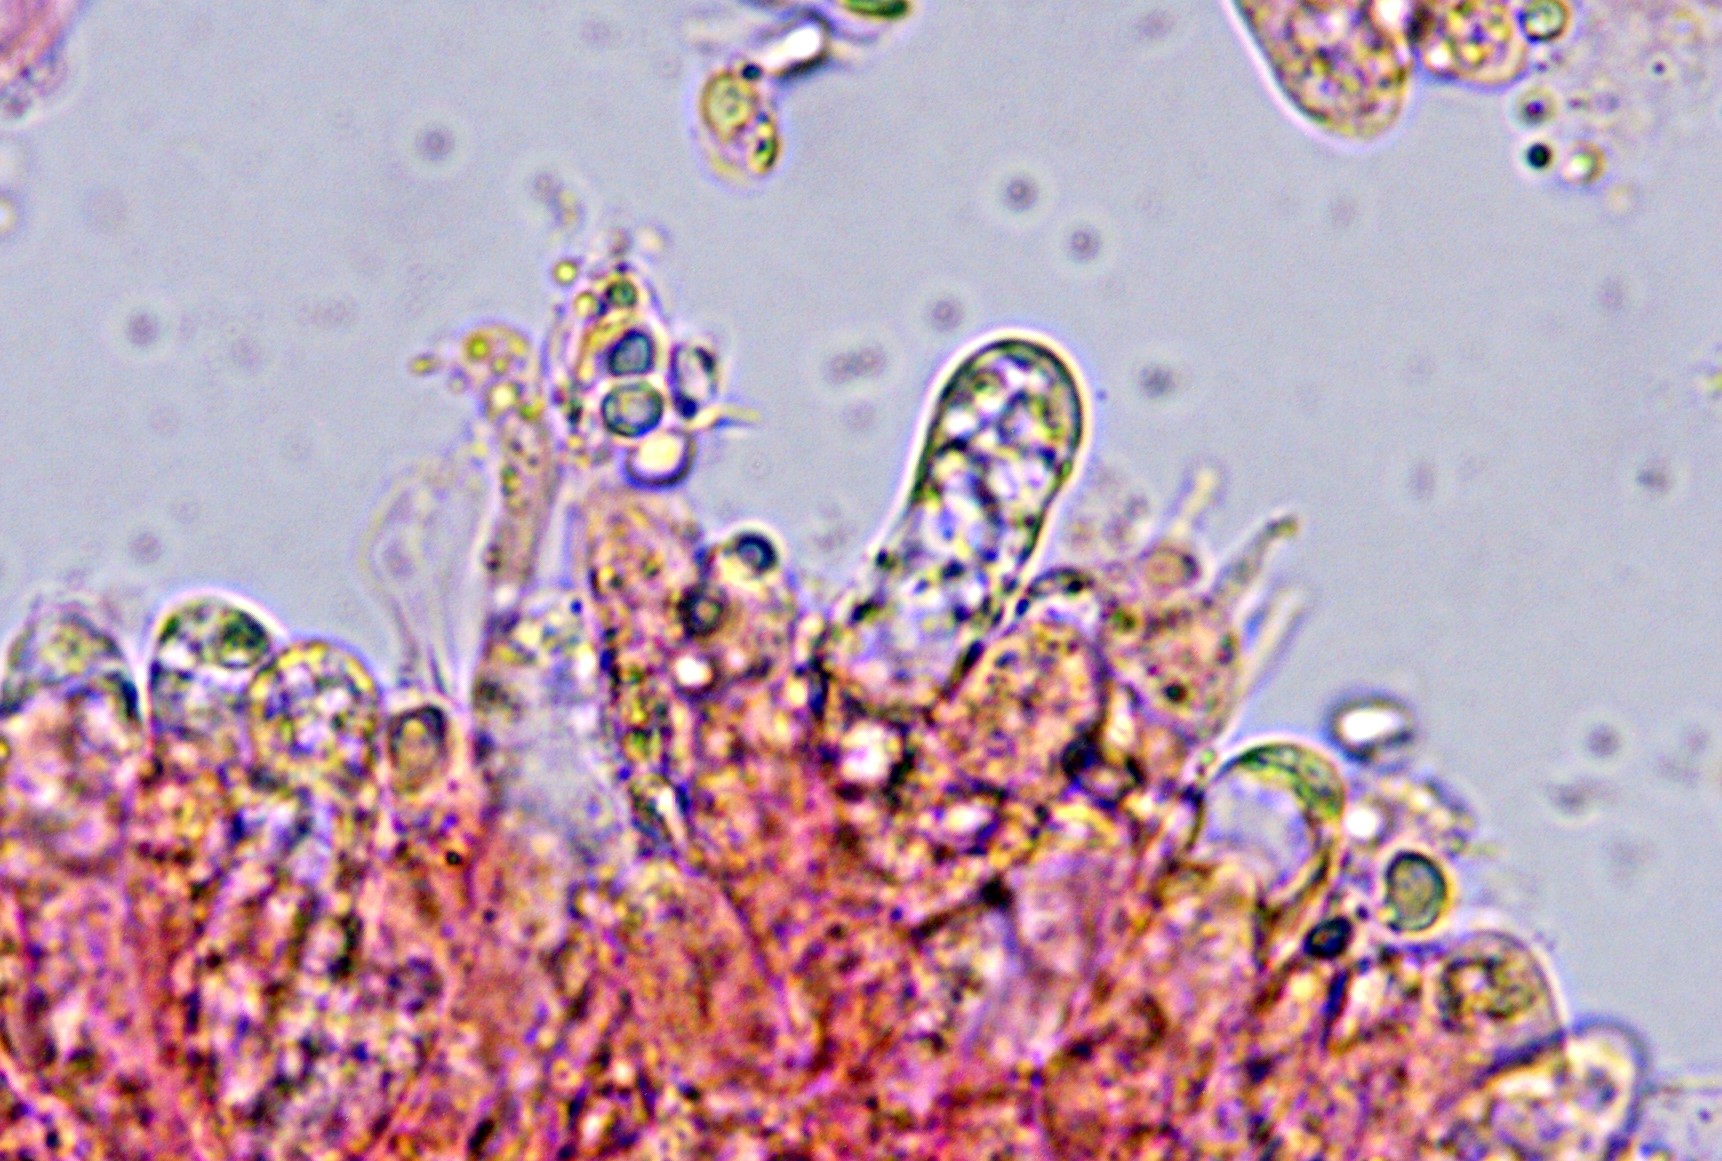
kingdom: Fungi
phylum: Basidiomycota
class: Agaricomycetes
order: Agaricales
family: Mycenaceae
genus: Mycena
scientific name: Mycena cinerella
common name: mel-huesvamp
